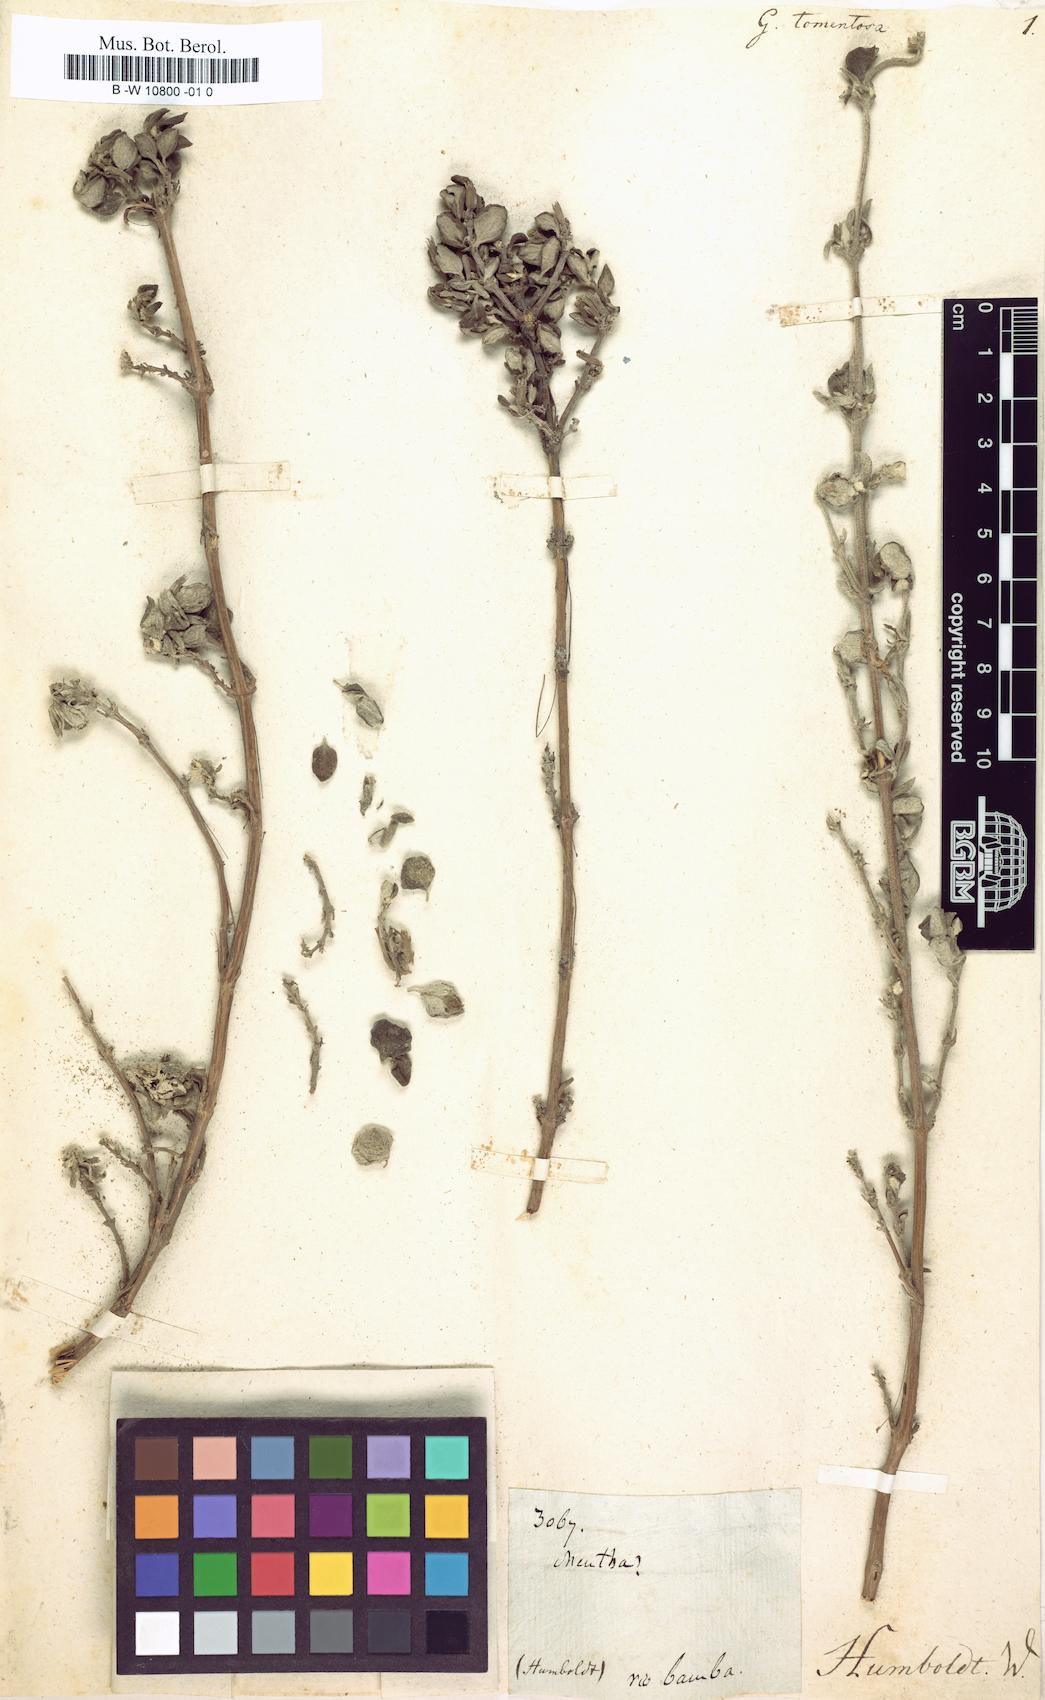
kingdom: Plantae
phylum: Tracheophyta
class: Magnoliopsida
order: Lamiales
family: Lamiaceae
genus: Clinopodium
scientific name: Clinopodium tomentosum
